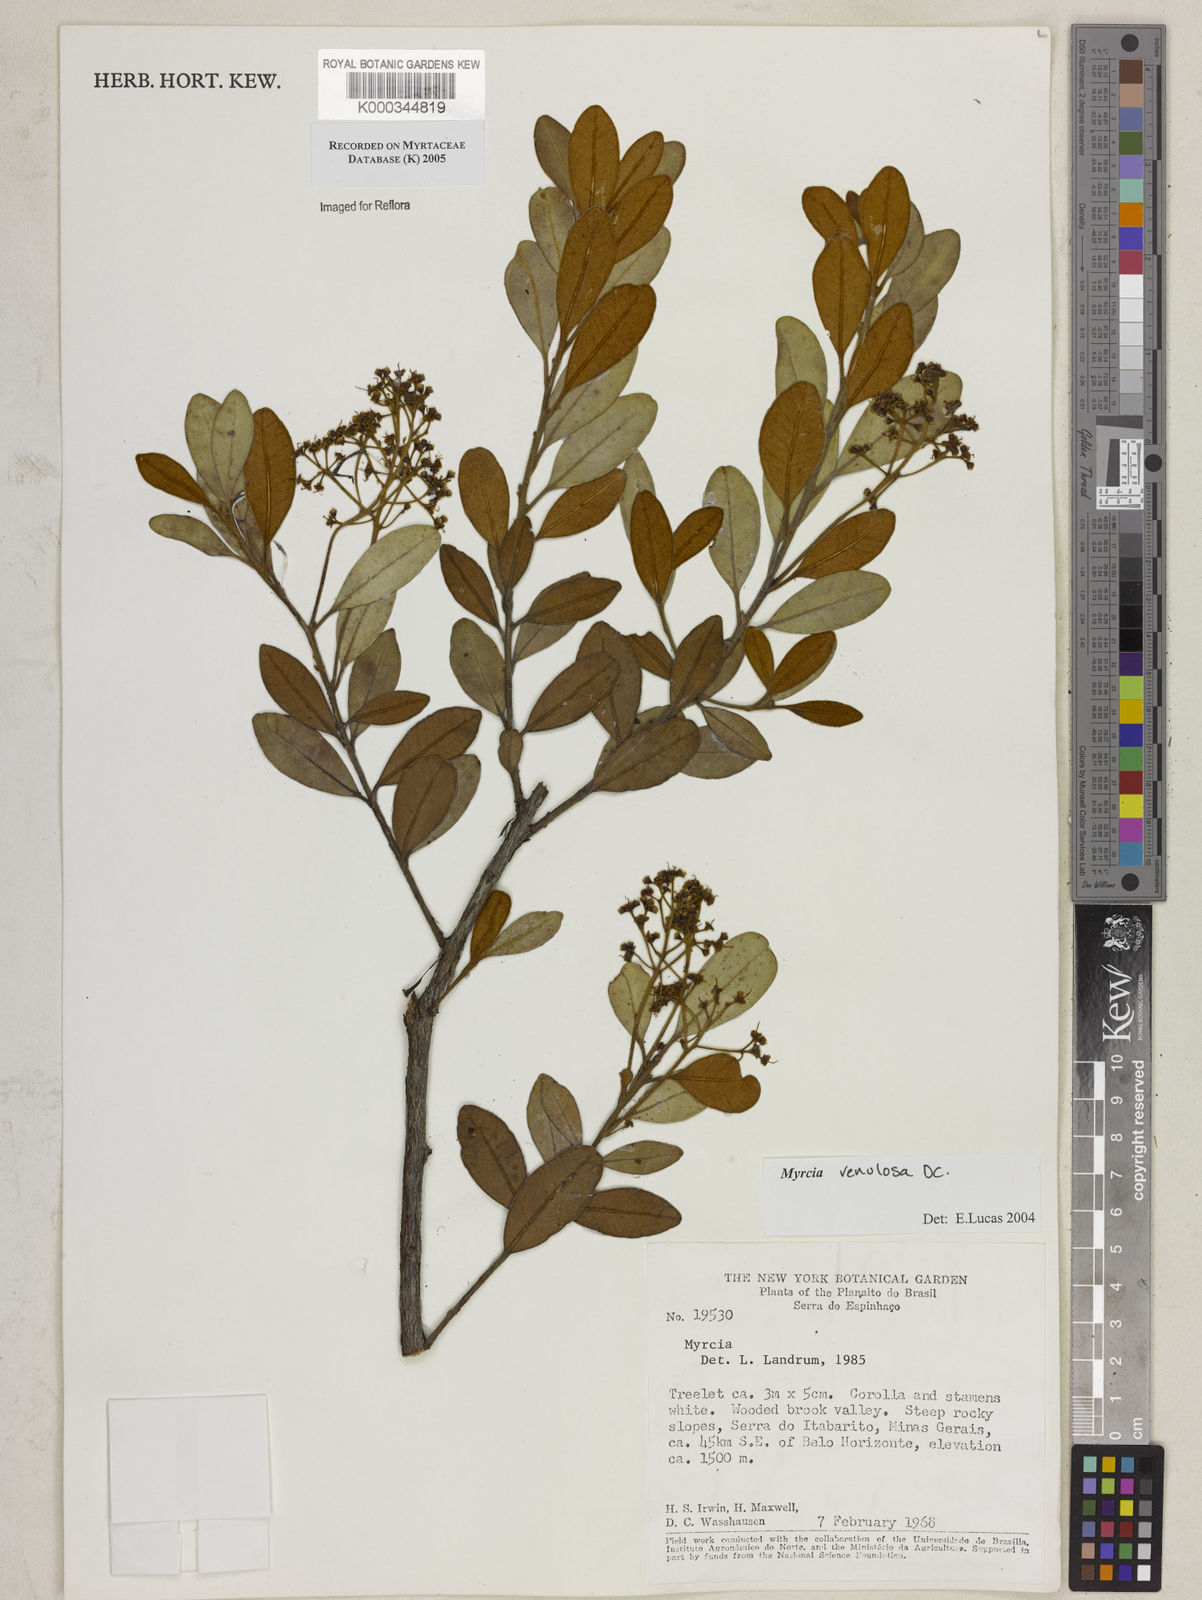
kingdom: Plantae
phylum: Tracheophyta
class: Magnoliopsida
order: Myrtales
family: Myrtaceae
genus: Myrcia
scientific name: Myrcia venulosa
